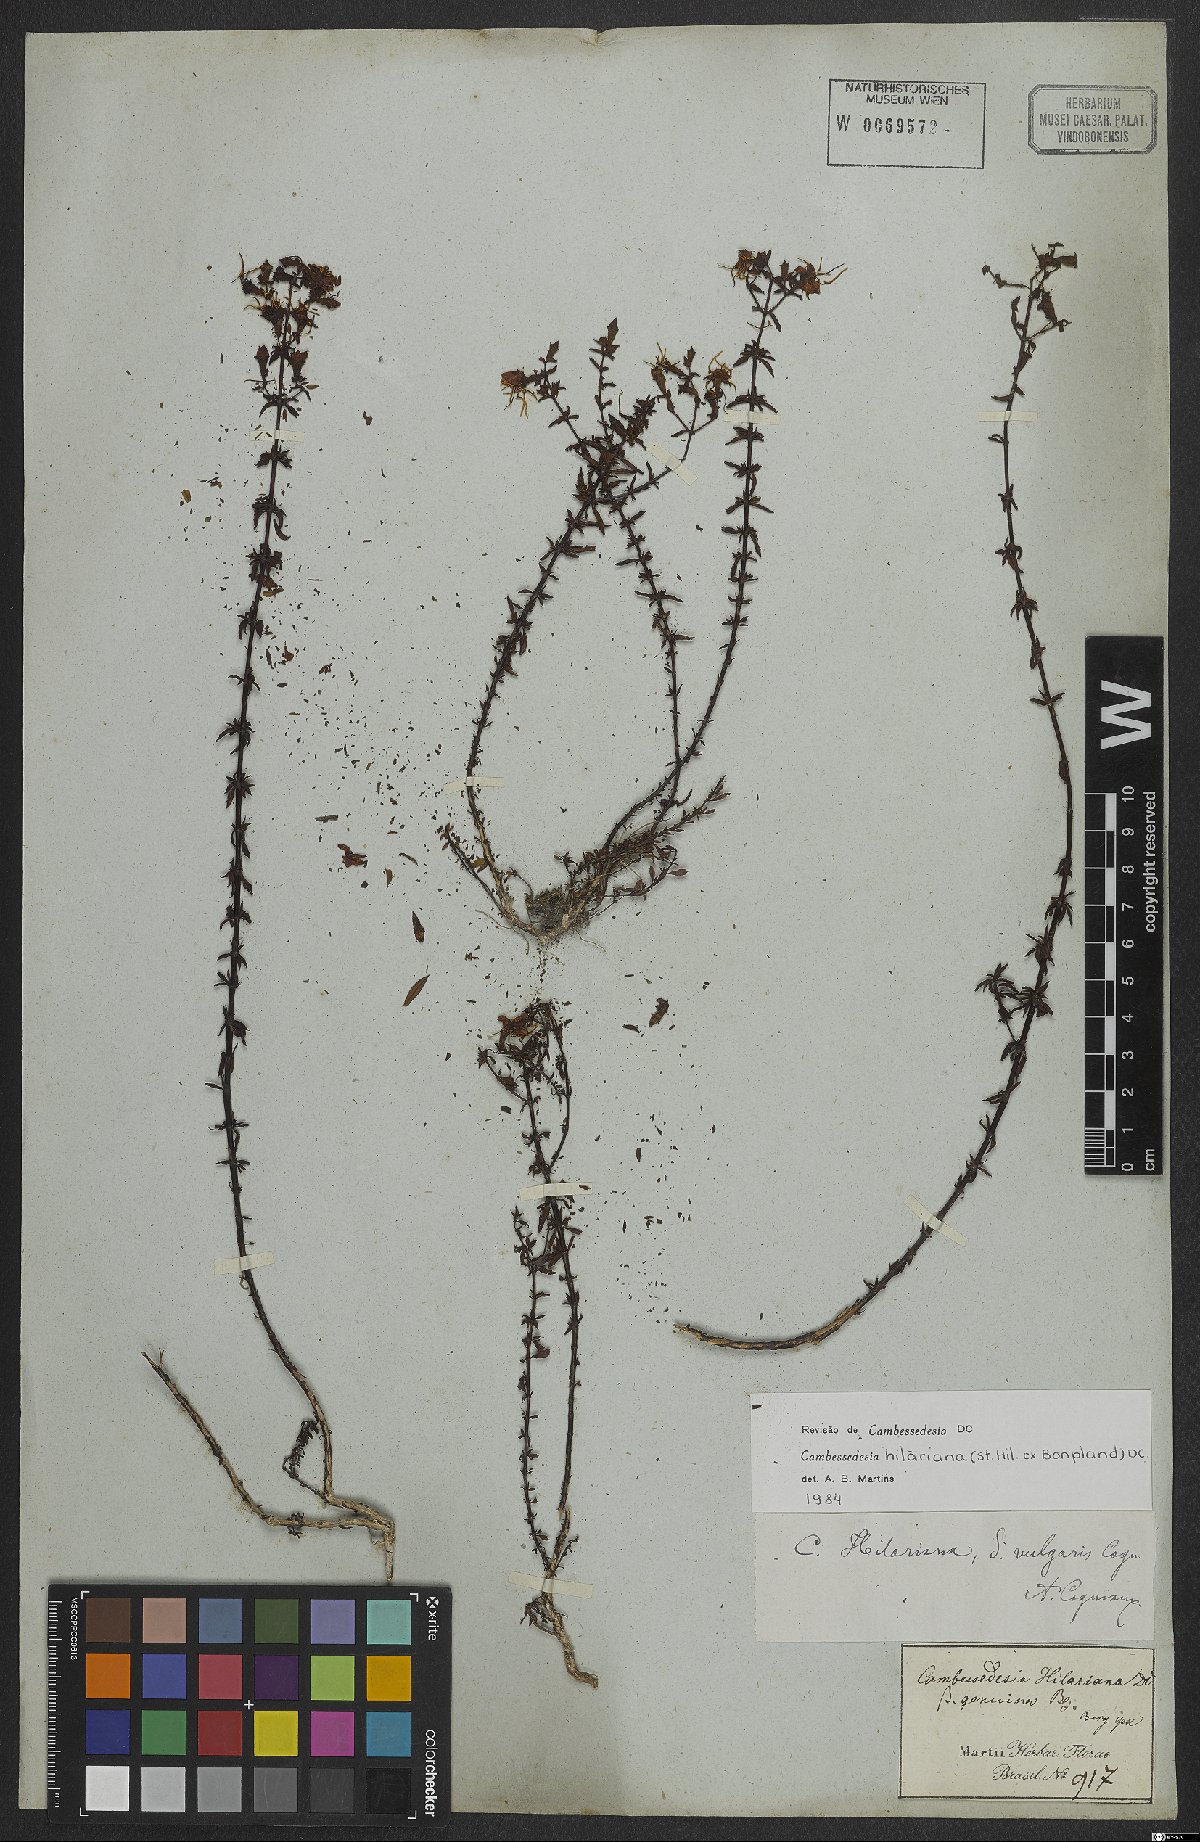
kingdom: Plantae
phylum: Tracheophyta
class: Magnoliopsida
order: Myrtales
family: Melastomataceae
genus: Cambessedesia
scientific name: Cambessedesia hilariana
